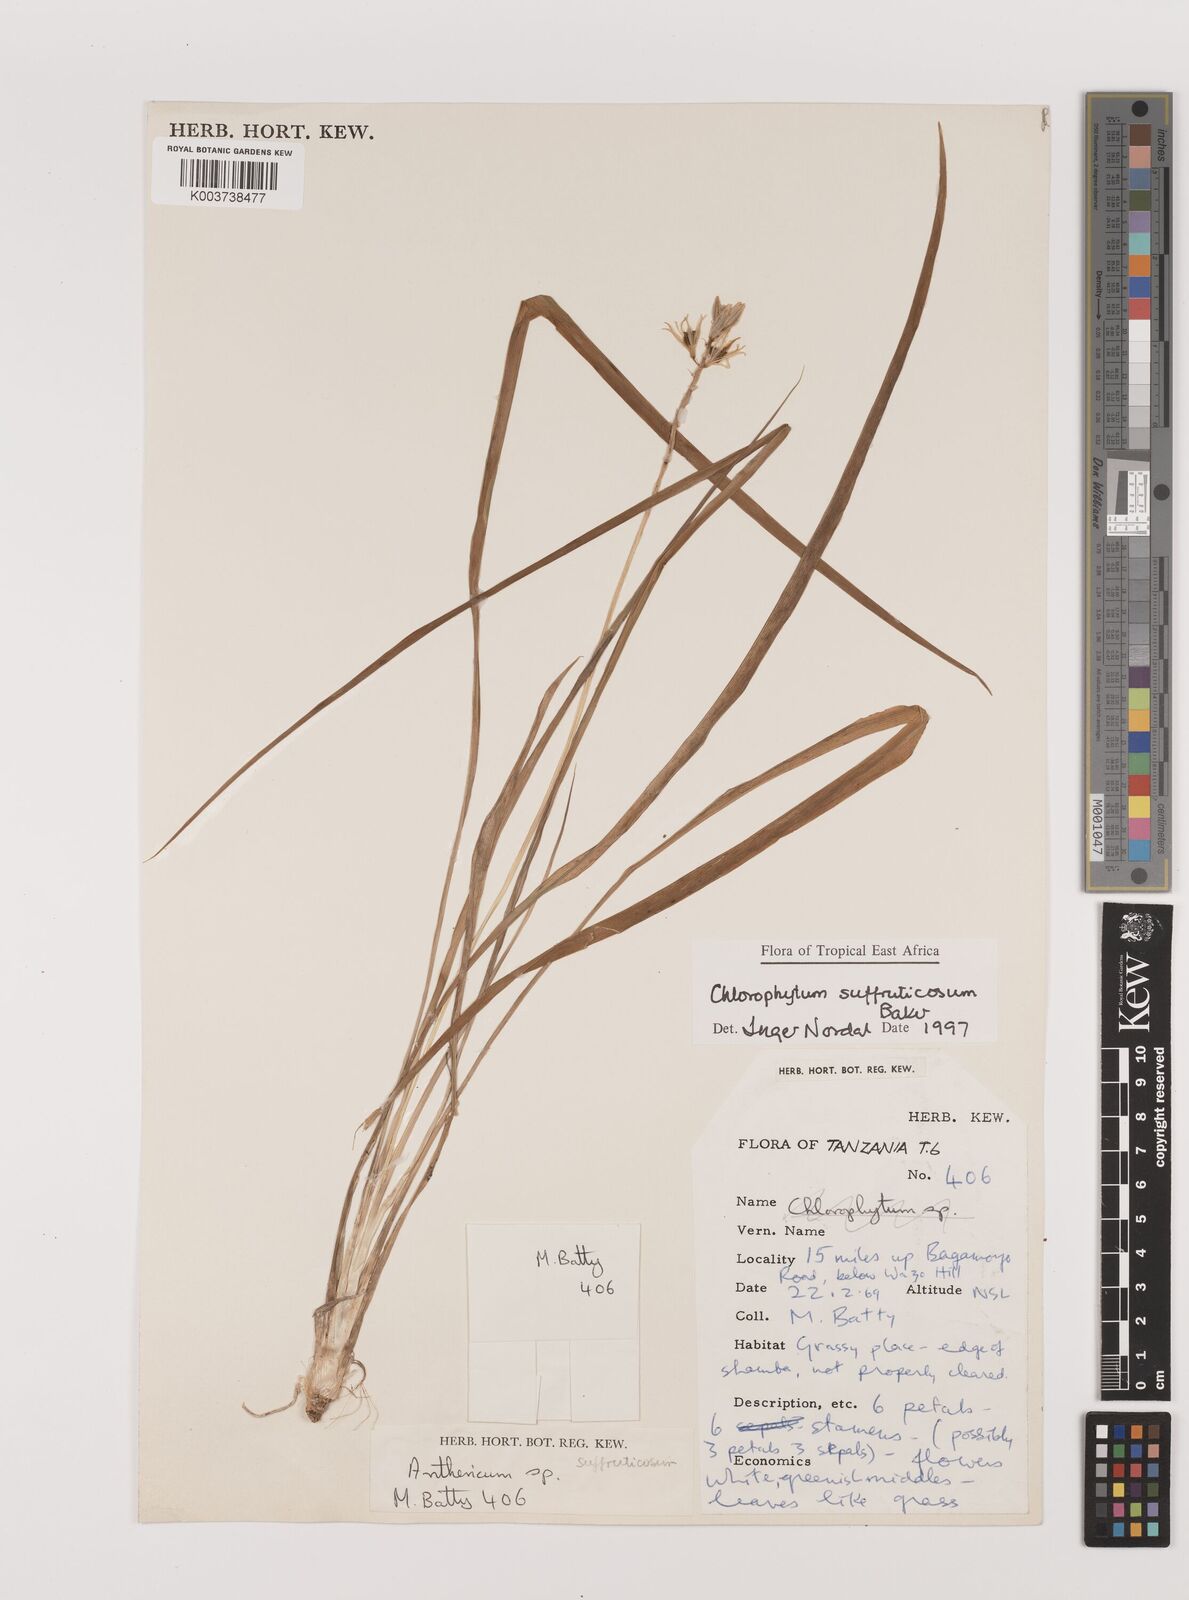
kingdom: Plantae
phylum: Tracheophyta
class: Liliopsida
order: Asparagales
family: Asparagaceae
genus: Chlorophytum
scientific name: Chlorophytum suffruticosum
